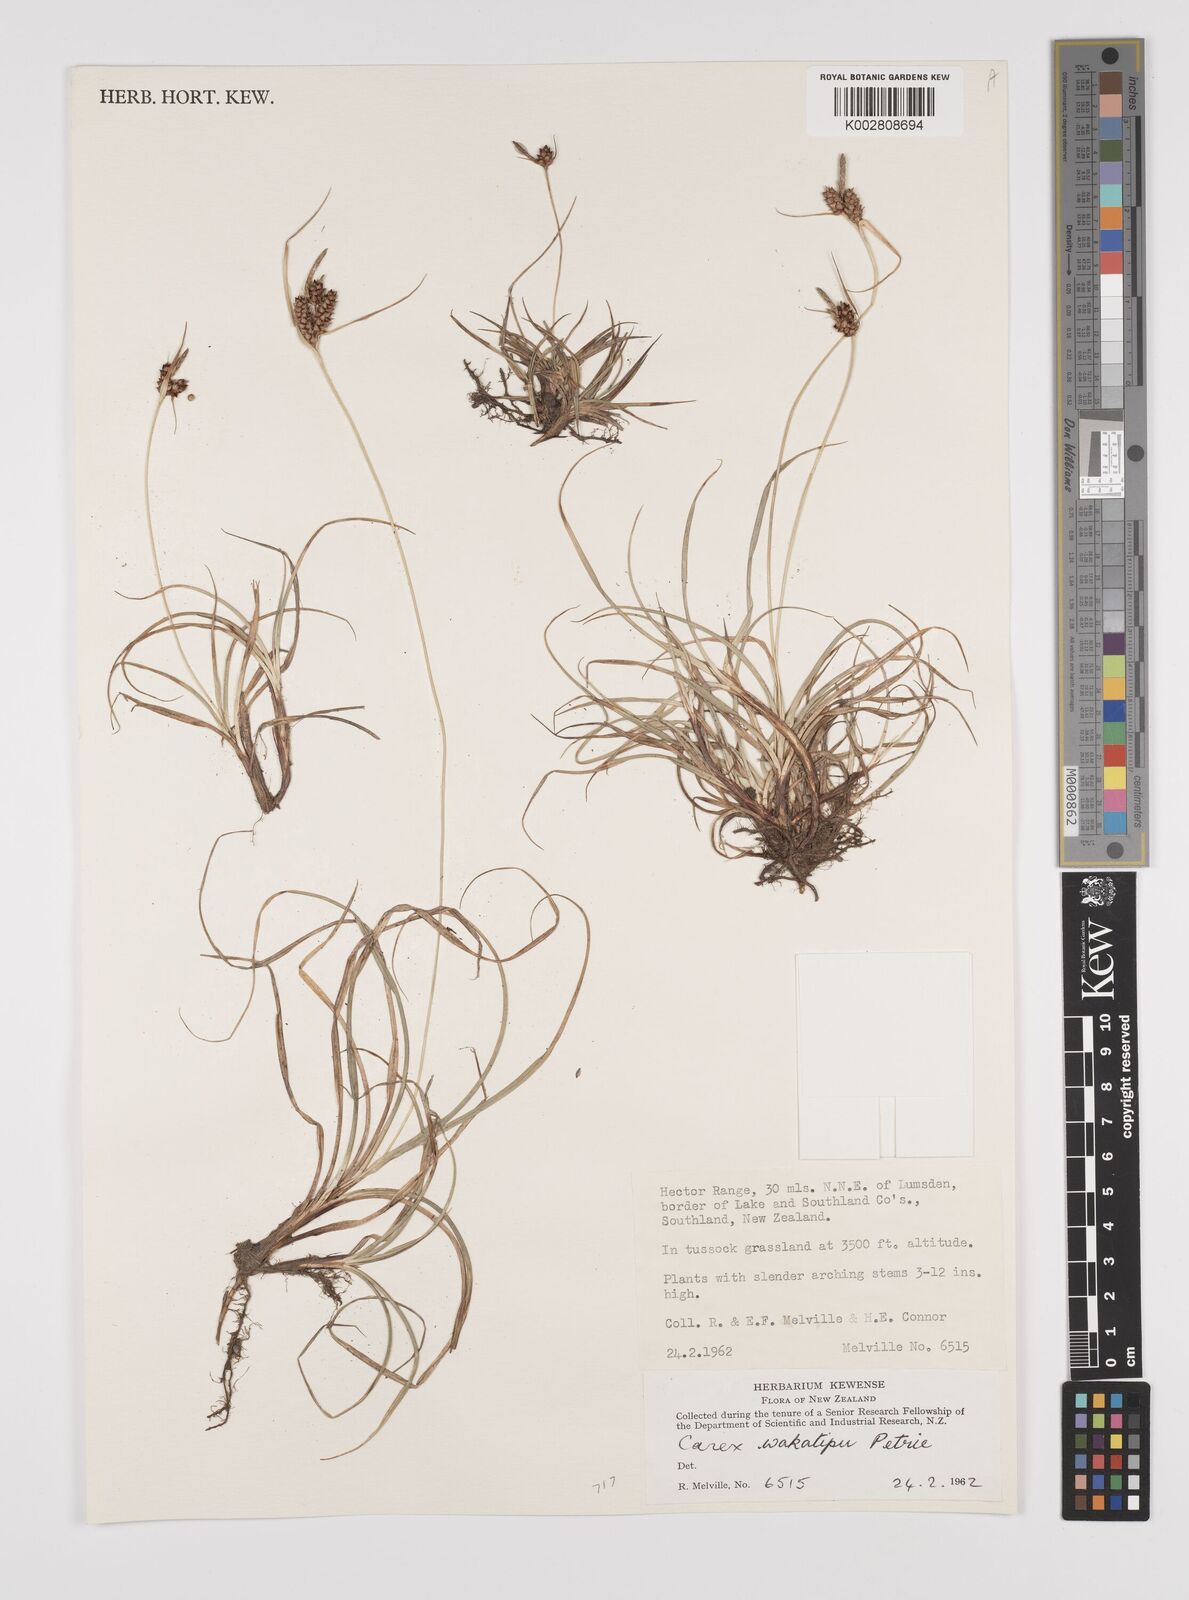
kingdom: Plantae
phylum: Tracheophyta
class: Liliopsida
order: Poales
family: Cyperaceae
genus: Carex
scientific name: Carex wakatipu
